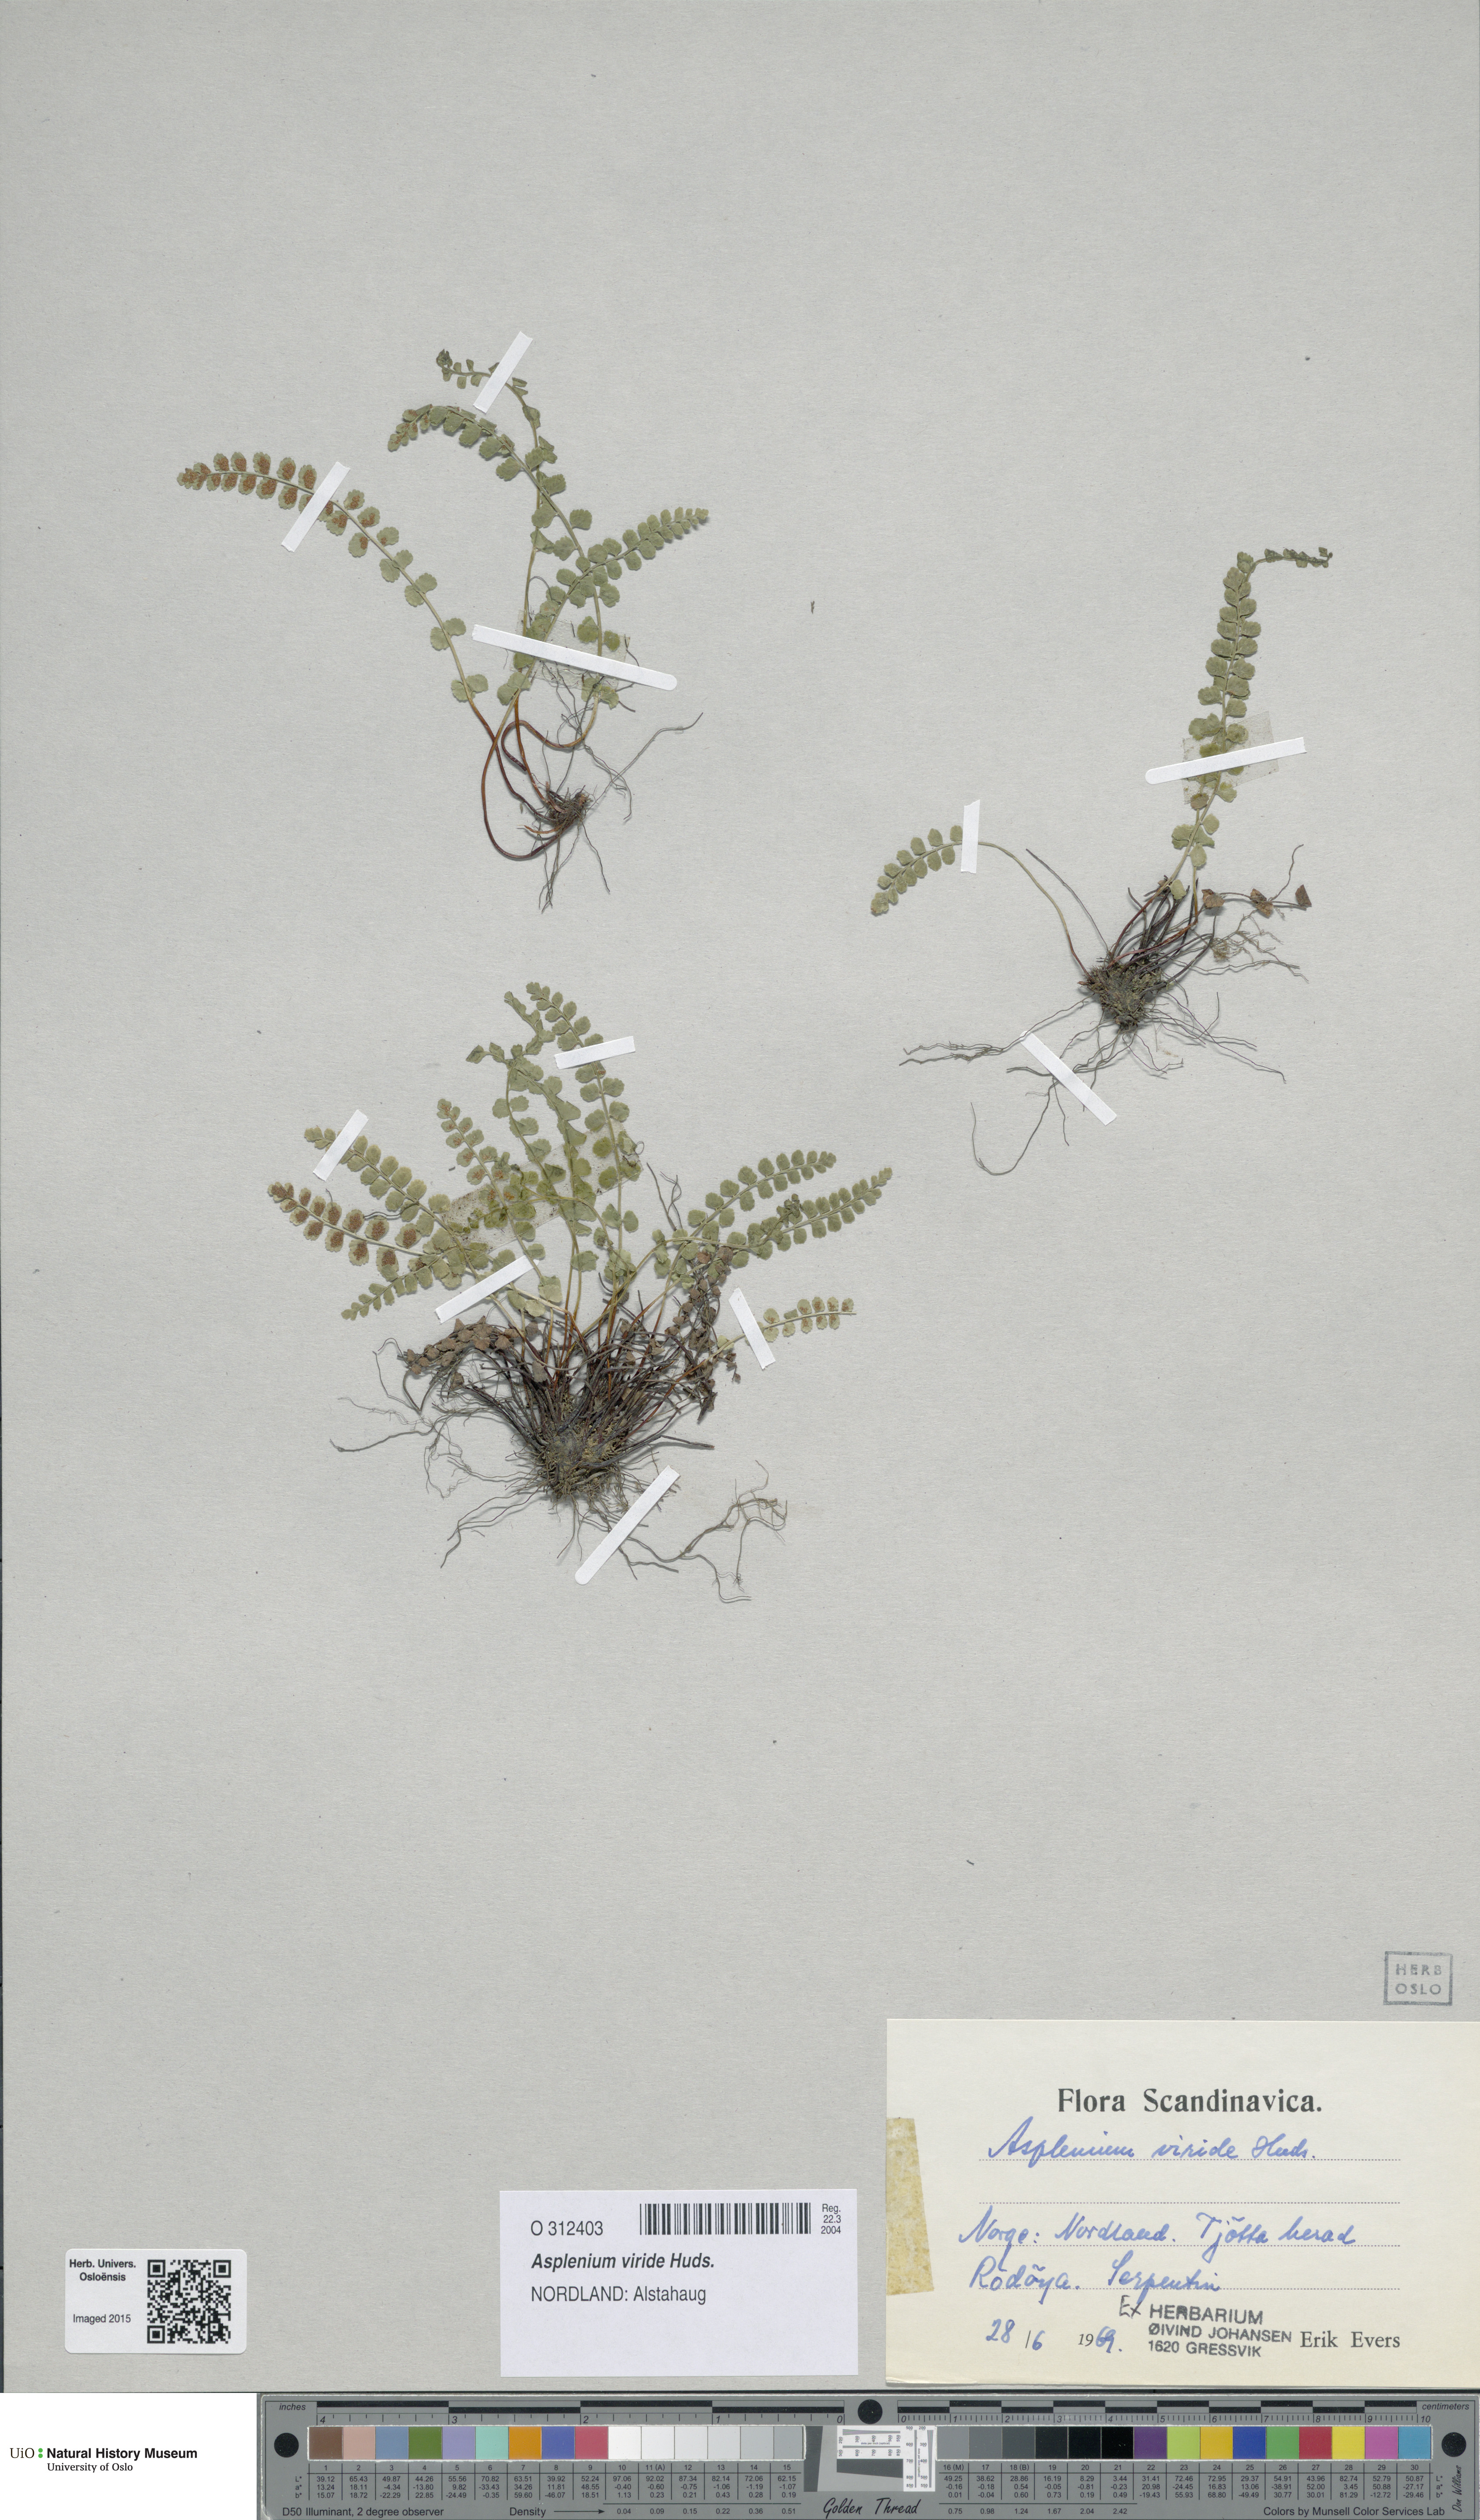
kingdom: Plantae
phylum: Tracheophyta
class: Polypodiopsida
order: Polypodiales
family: Aspleniaceae
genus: Asplenium
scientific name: Asplenium viride
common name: Green spleenwort
